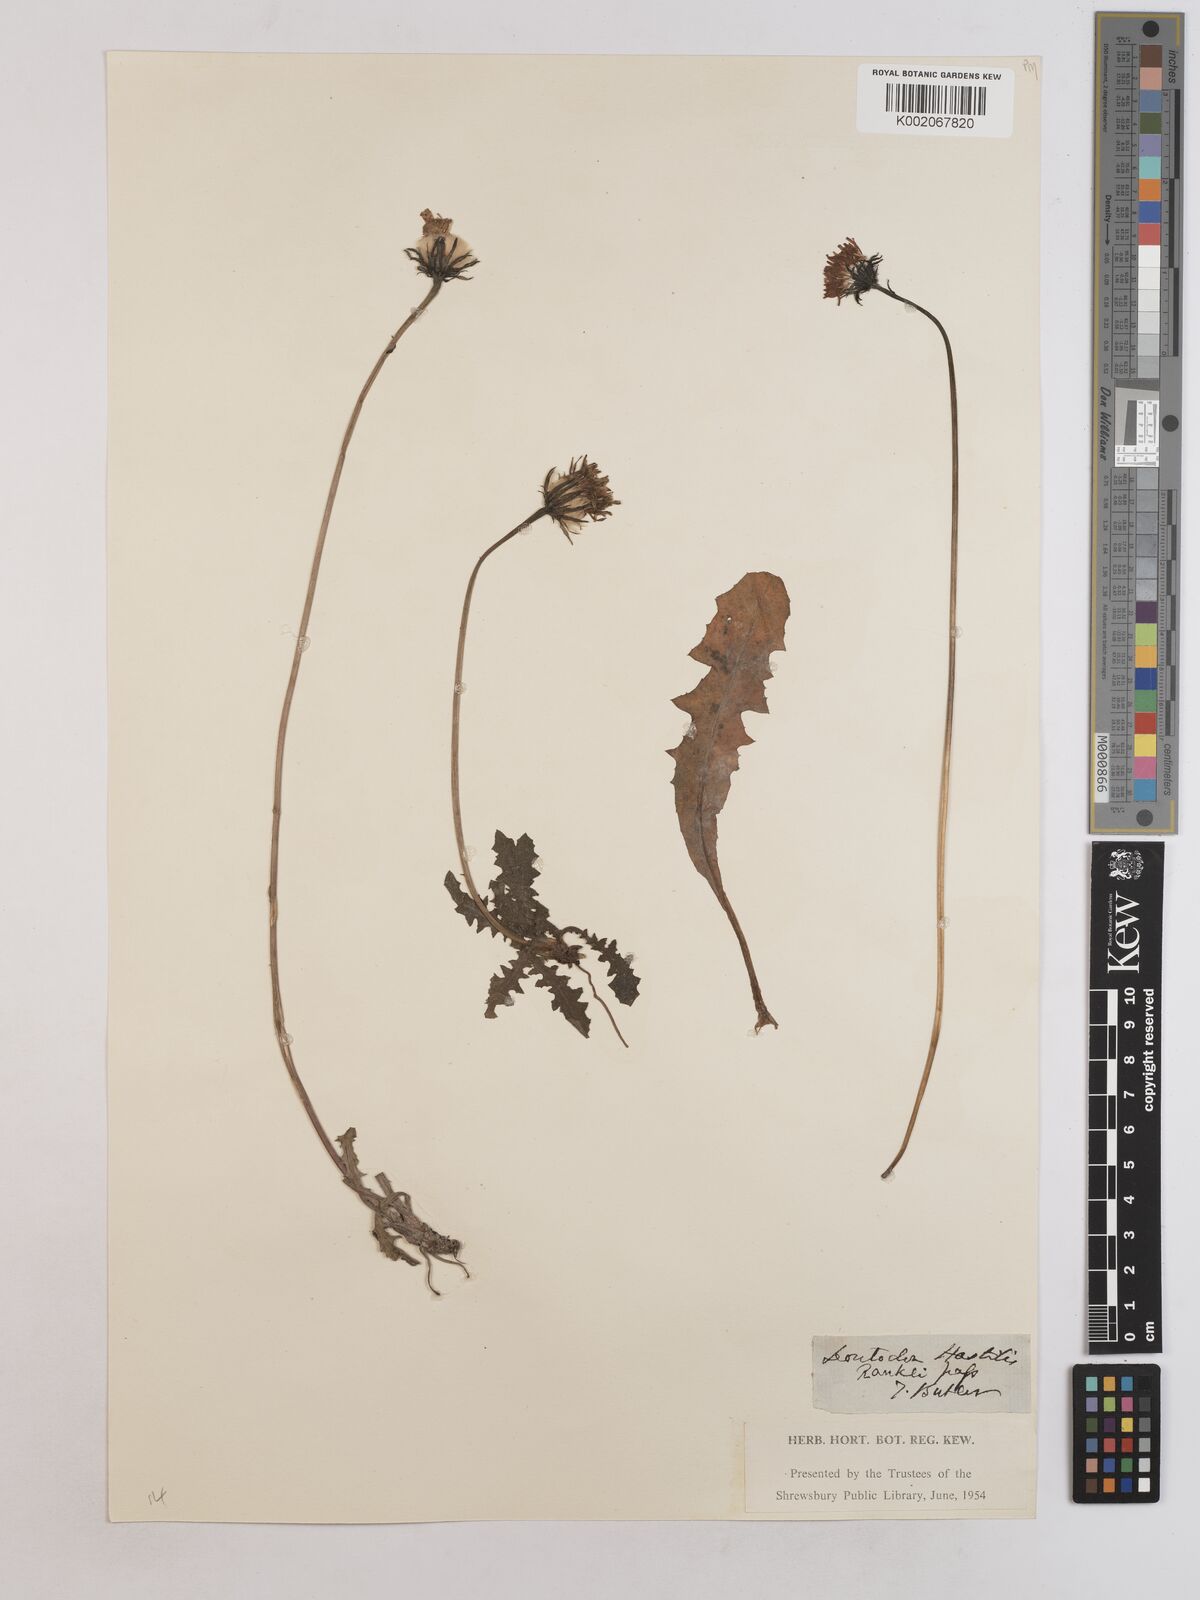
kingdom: Plantae
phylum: Tracheophyta
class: Magnoliopsida
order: Asterales
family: Asteraceae
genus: Leontodon
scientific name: Leontodon hispidus
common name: Rough hawkbit
